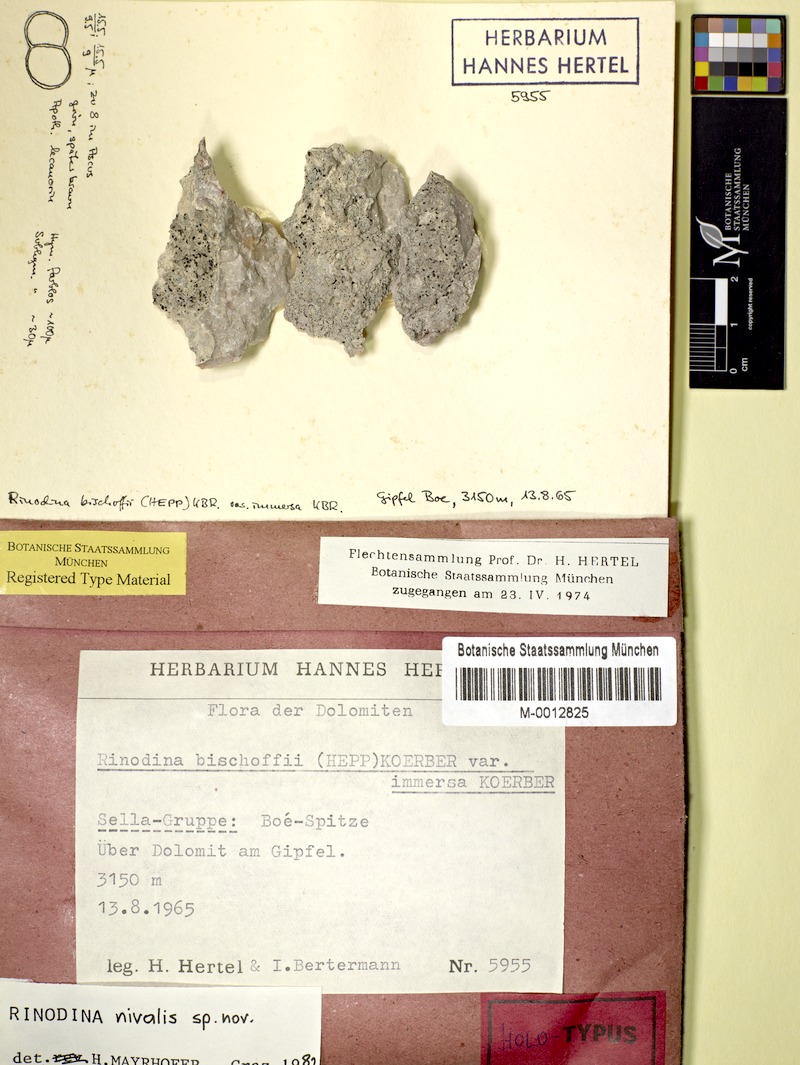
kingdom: Fungi
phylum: Ascomycota
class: Lecanoromycetes
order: Caliciales
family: Physciaceae
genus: Rinodina
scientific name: Rinodina
